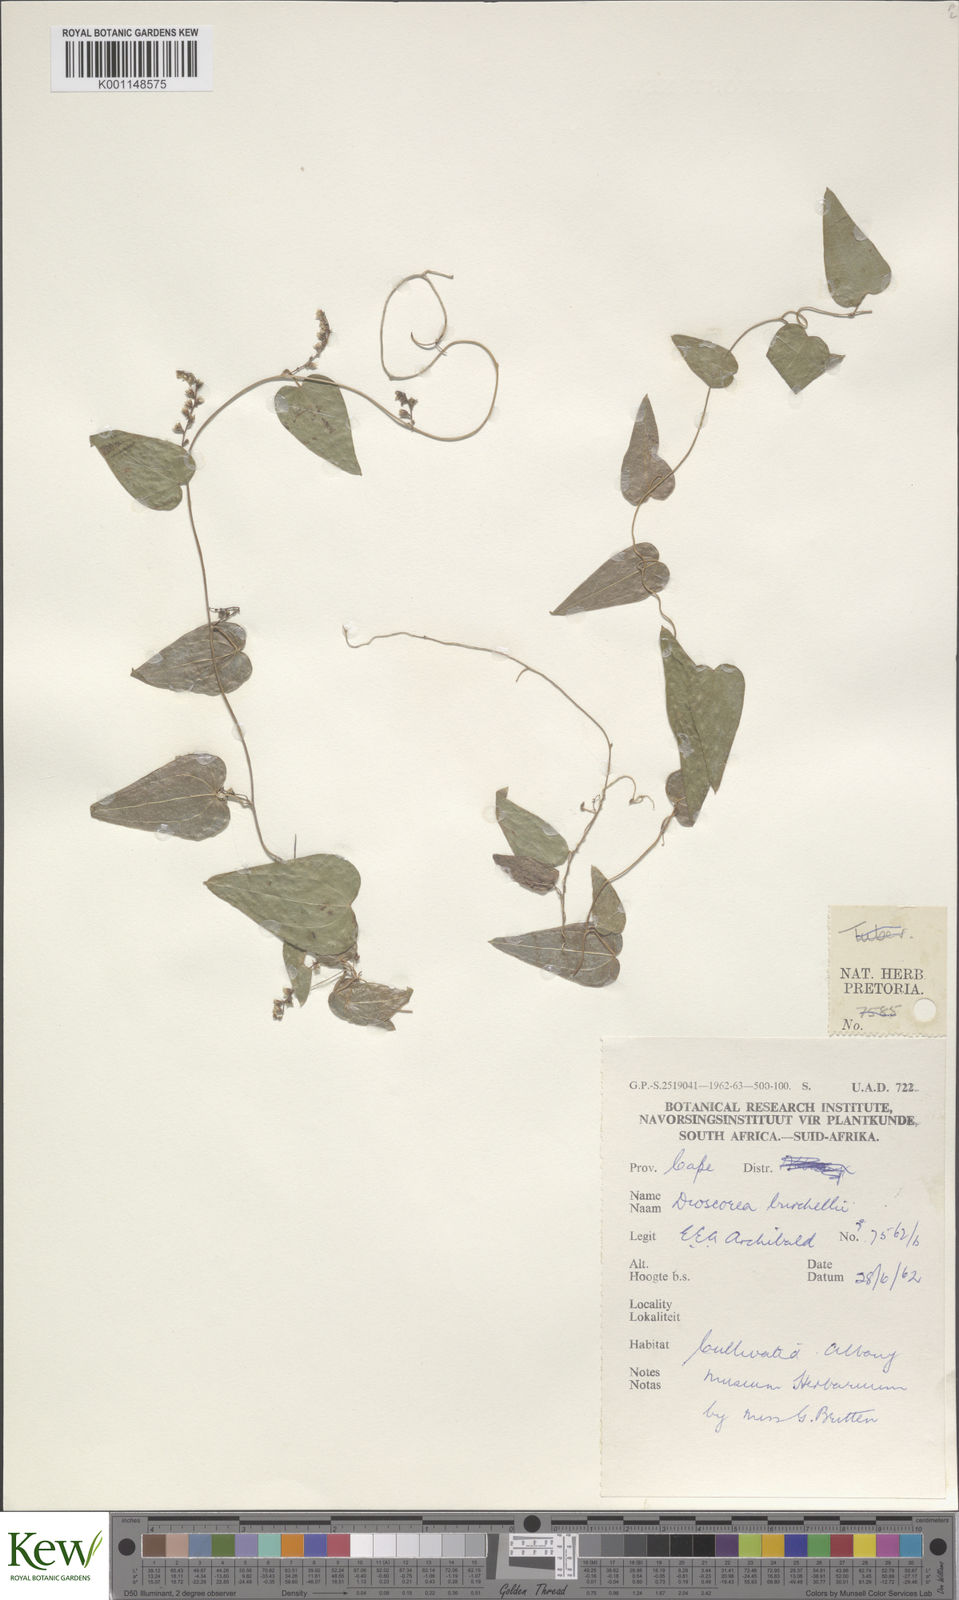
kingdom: Plantae
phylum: Tracheophyta
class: Liliopsida
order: Dioscoreales
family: Dioscoreaceae
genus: Dioscorea
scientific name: Dioscorea burchellii
